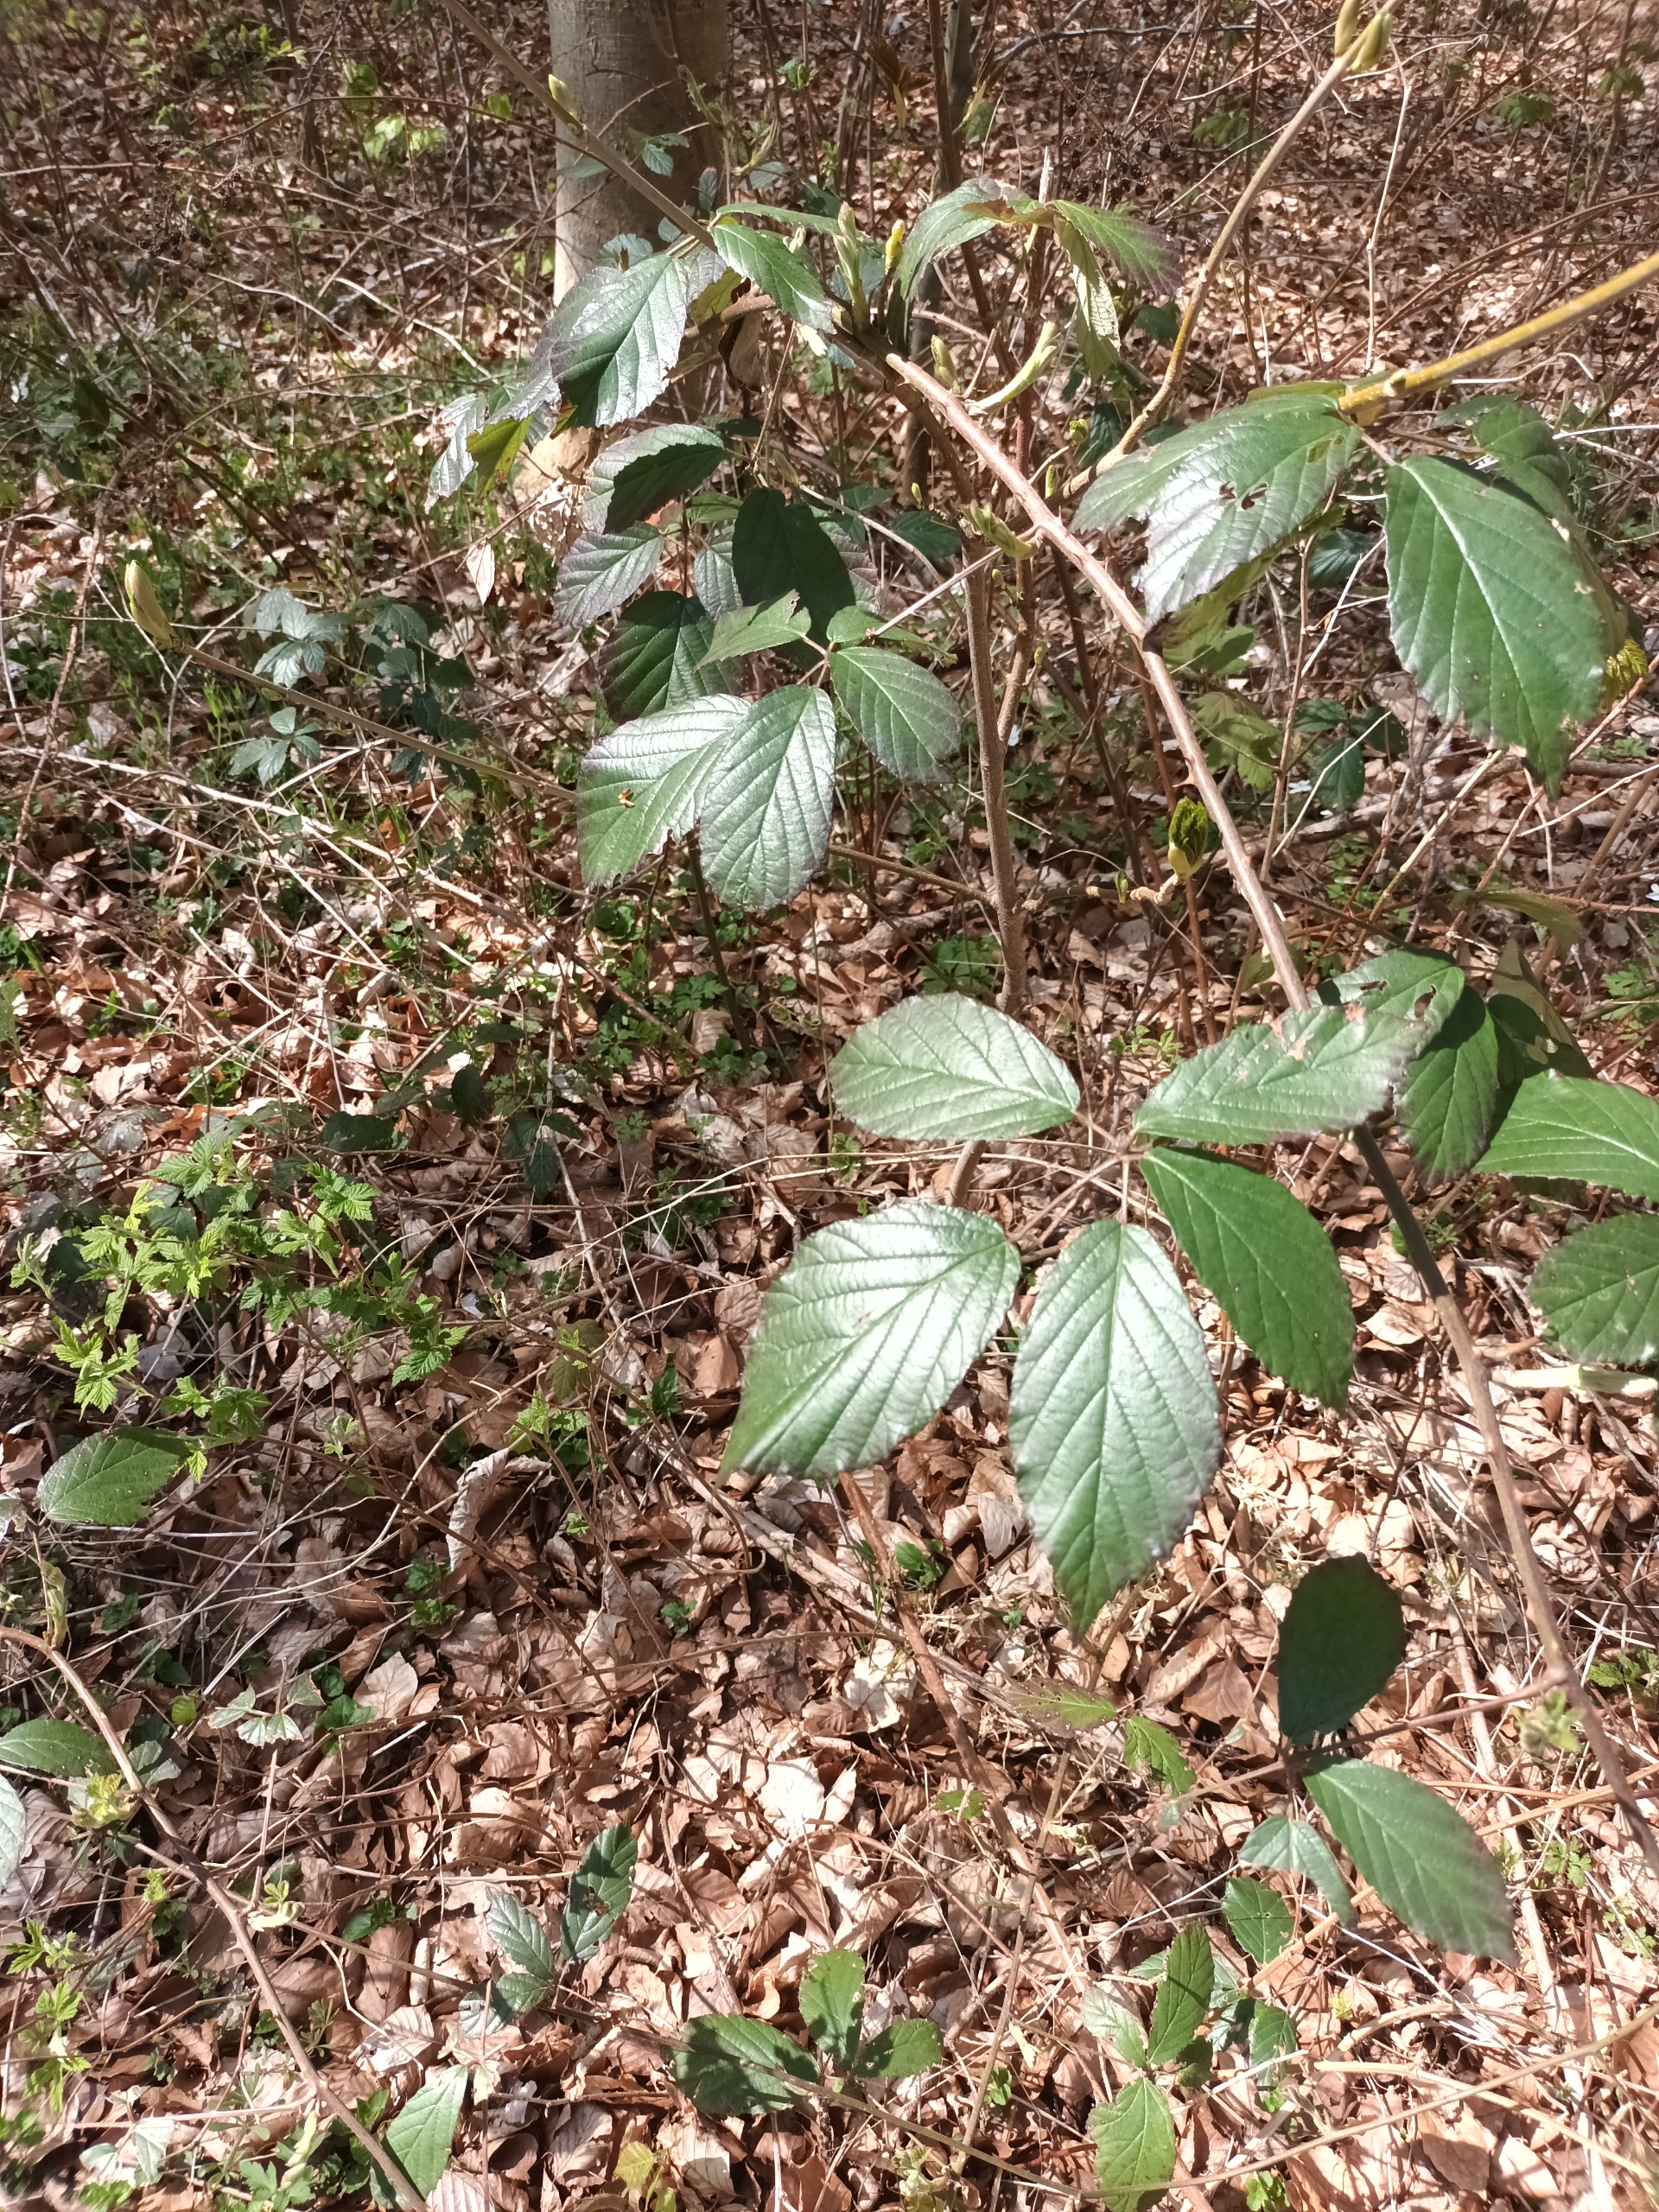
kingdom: Plantae
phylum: Tracheophyta
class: Magnoliopsida
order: Rosales
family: Rosaceae
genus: Rubus
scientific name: Rubus radula
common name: Rasperu brombær
